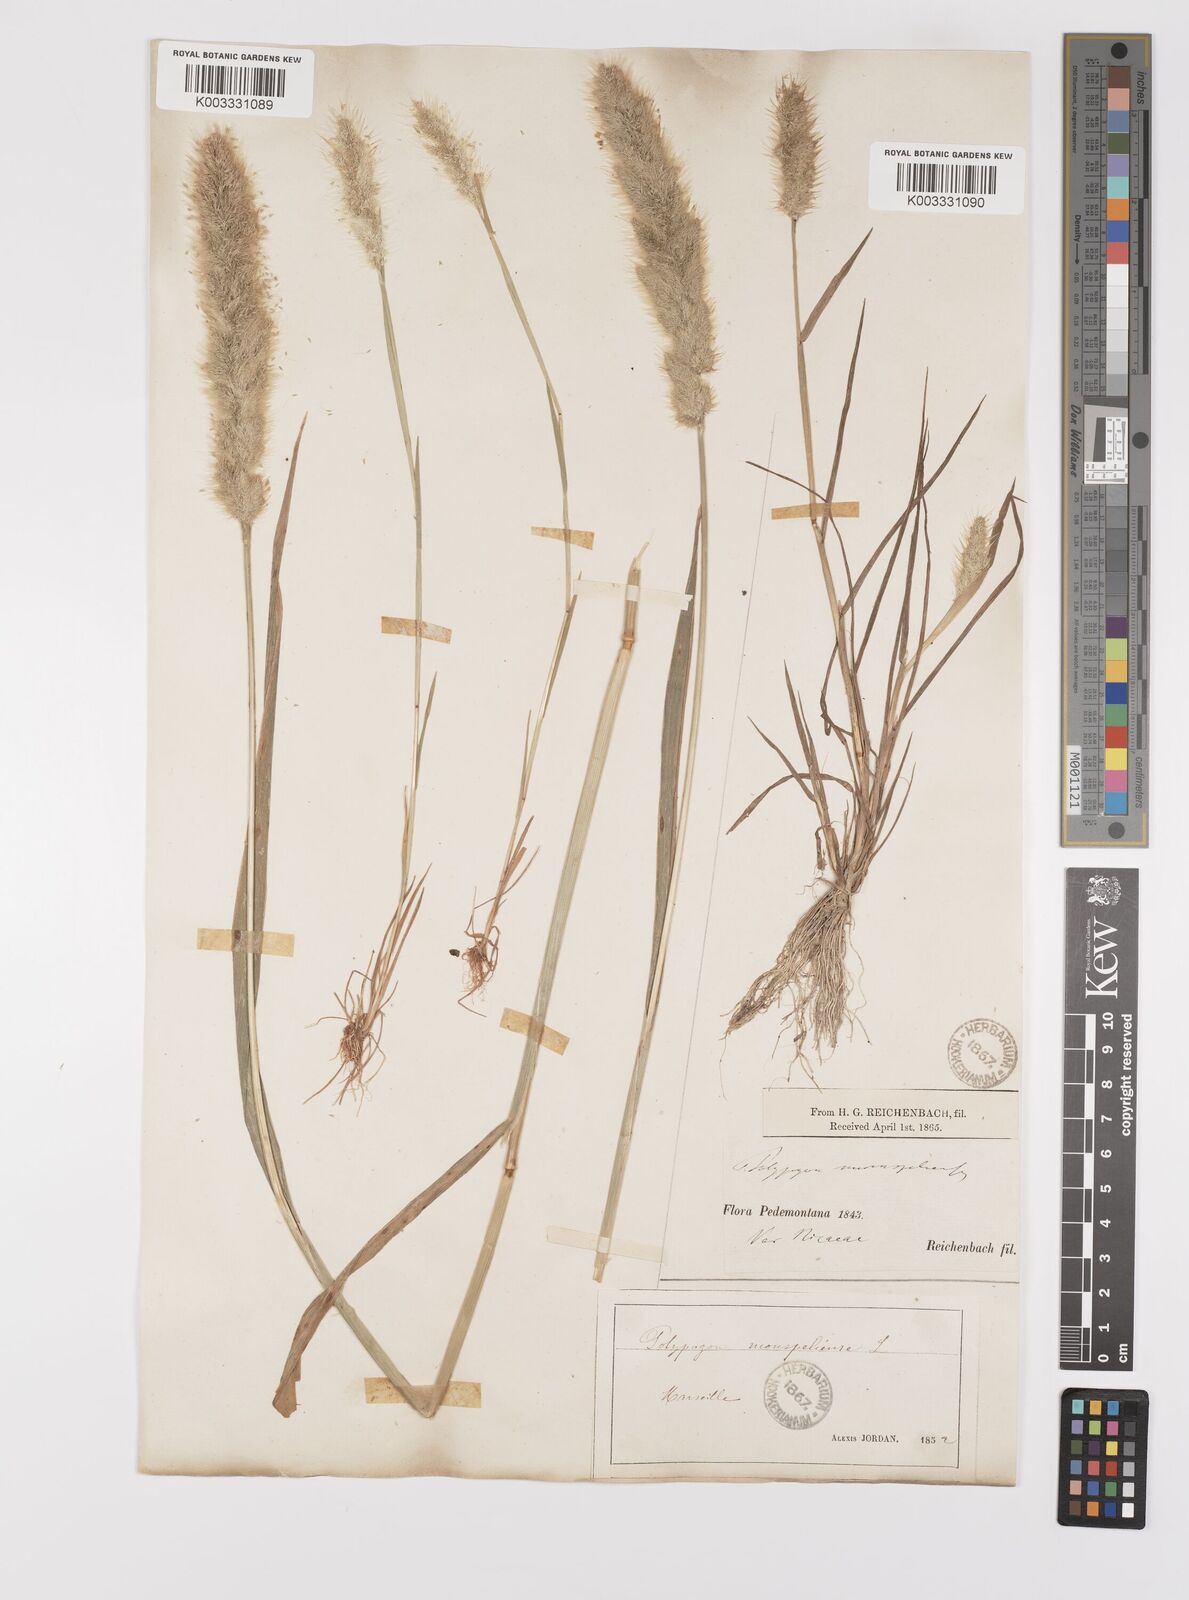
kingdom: Plantae
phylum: Tracheophyta
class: Liliopsida
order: Poales
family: Poaceae
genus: Polypogon
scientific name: Polypogon monspeliensis
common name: Annual rabbitsfoot grass
